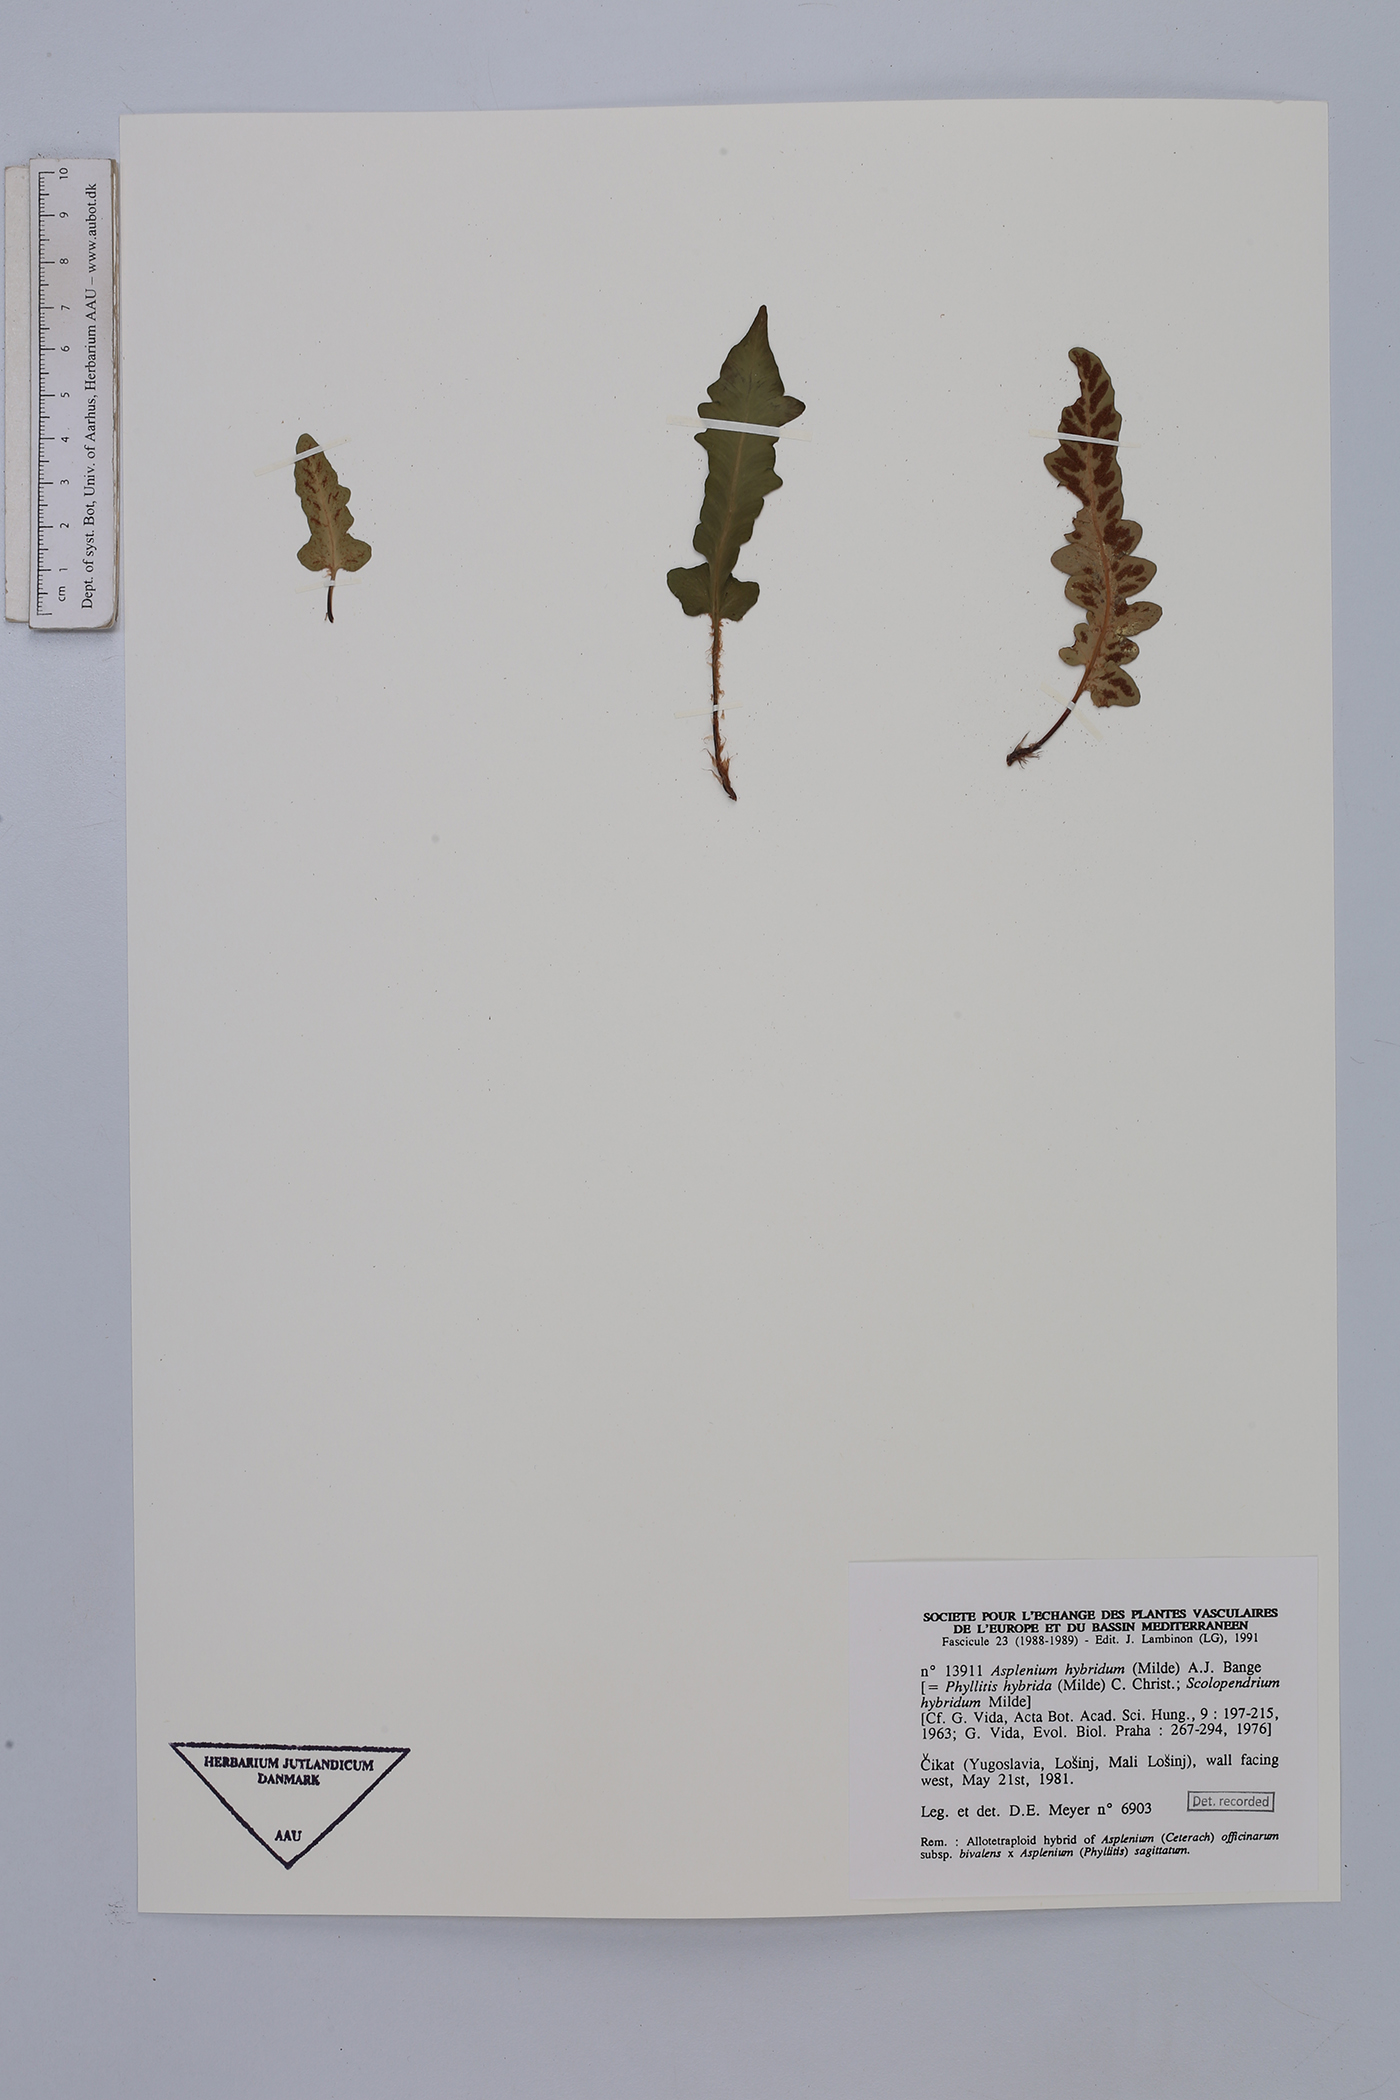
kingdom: Plantae
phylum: Tracheophyta
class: Polypodiopsida
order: Polypodiales
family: Aspleniaceae
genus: Asplenium
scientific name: Asplenium hybridum
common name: Dalmatian spleenwort
